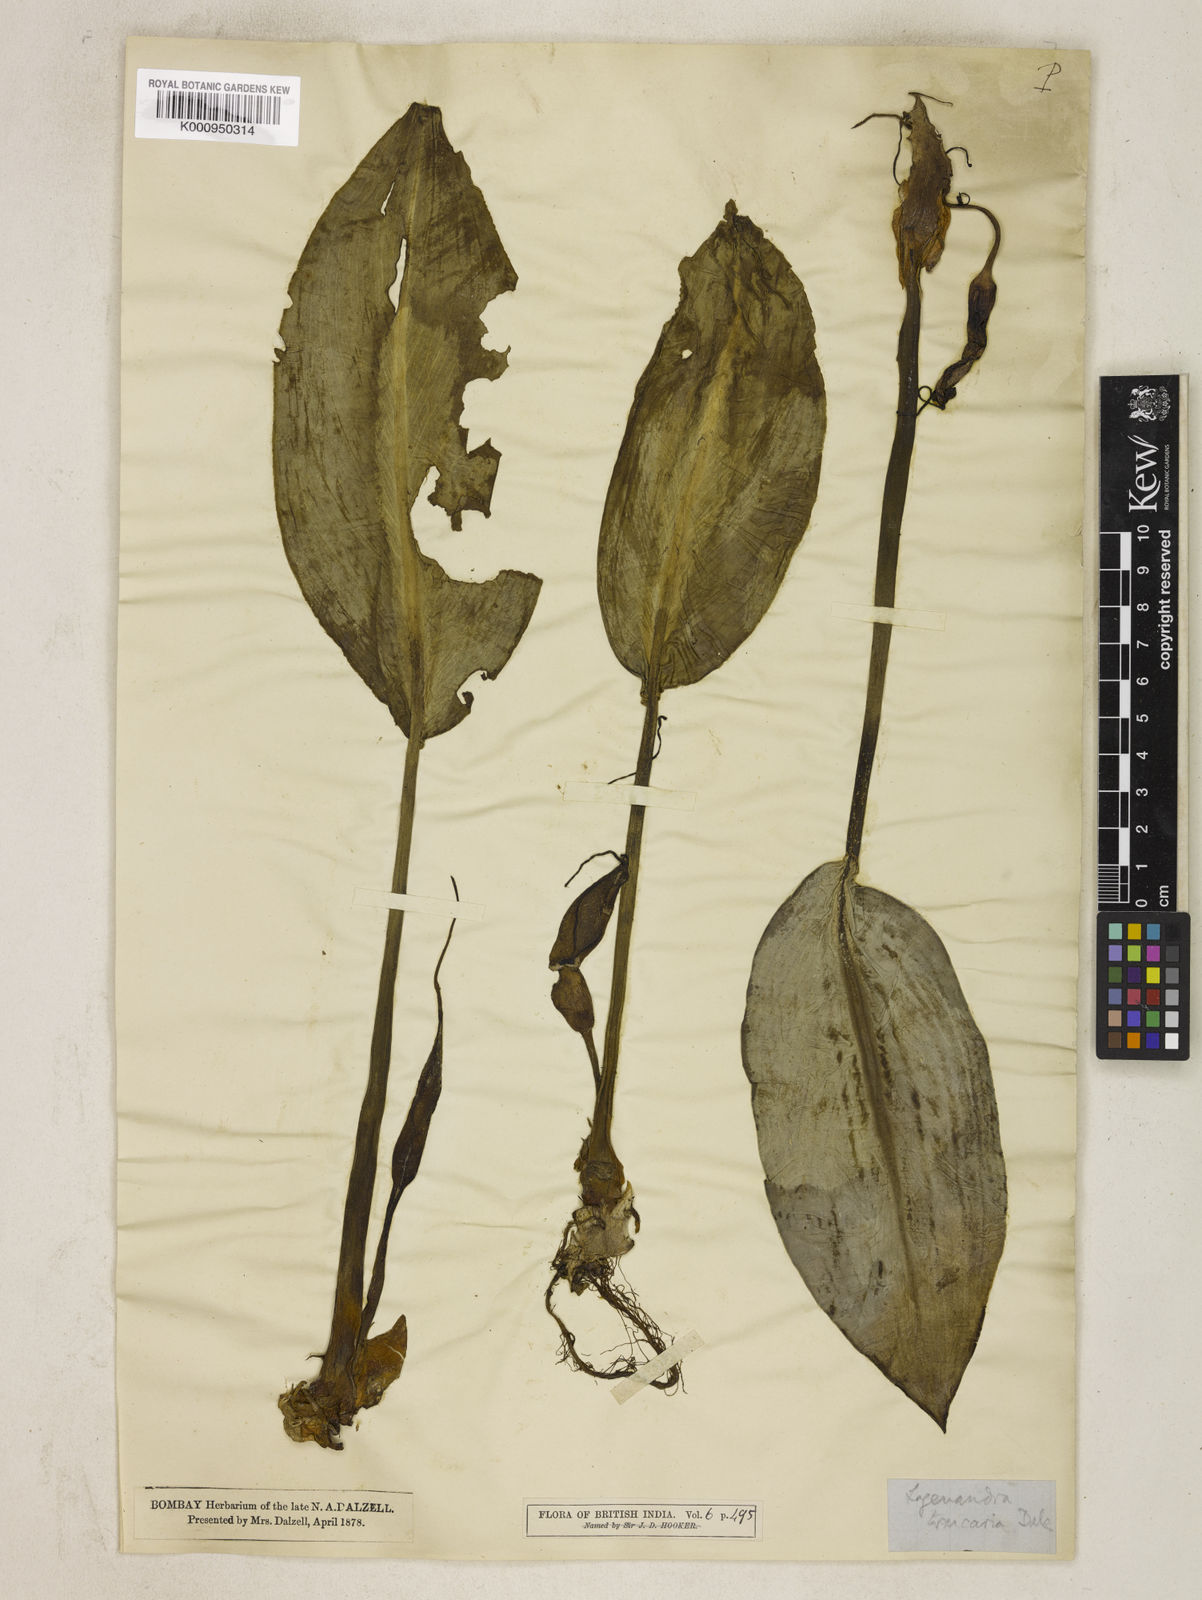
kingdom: Plantae
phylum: Tracheophyta
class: Liliopsida
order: Alismatales
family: Araceae
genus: Lagenandra
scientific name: Lagenandra toxicaria
